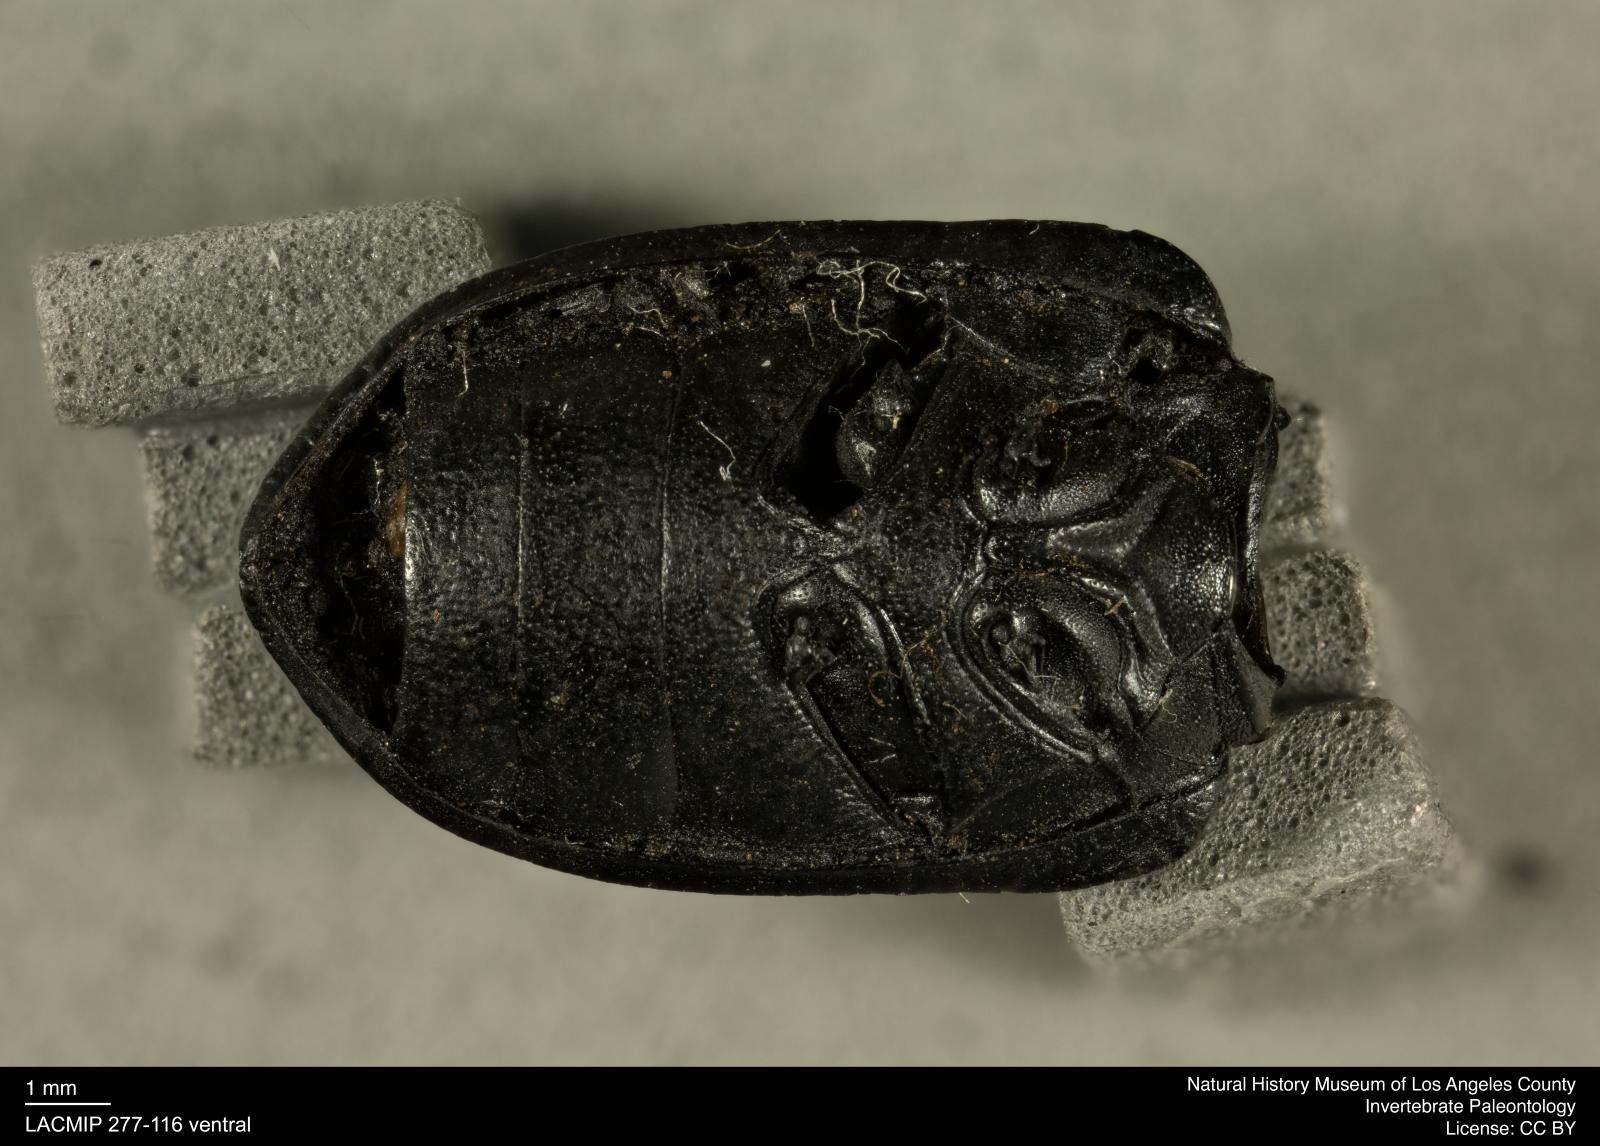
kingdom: Animalia
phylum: Arthropoda
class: Insecta
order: Coleoptera
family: Tenebrionidae
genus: Coniontis
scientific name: Coniontis abdominalis
